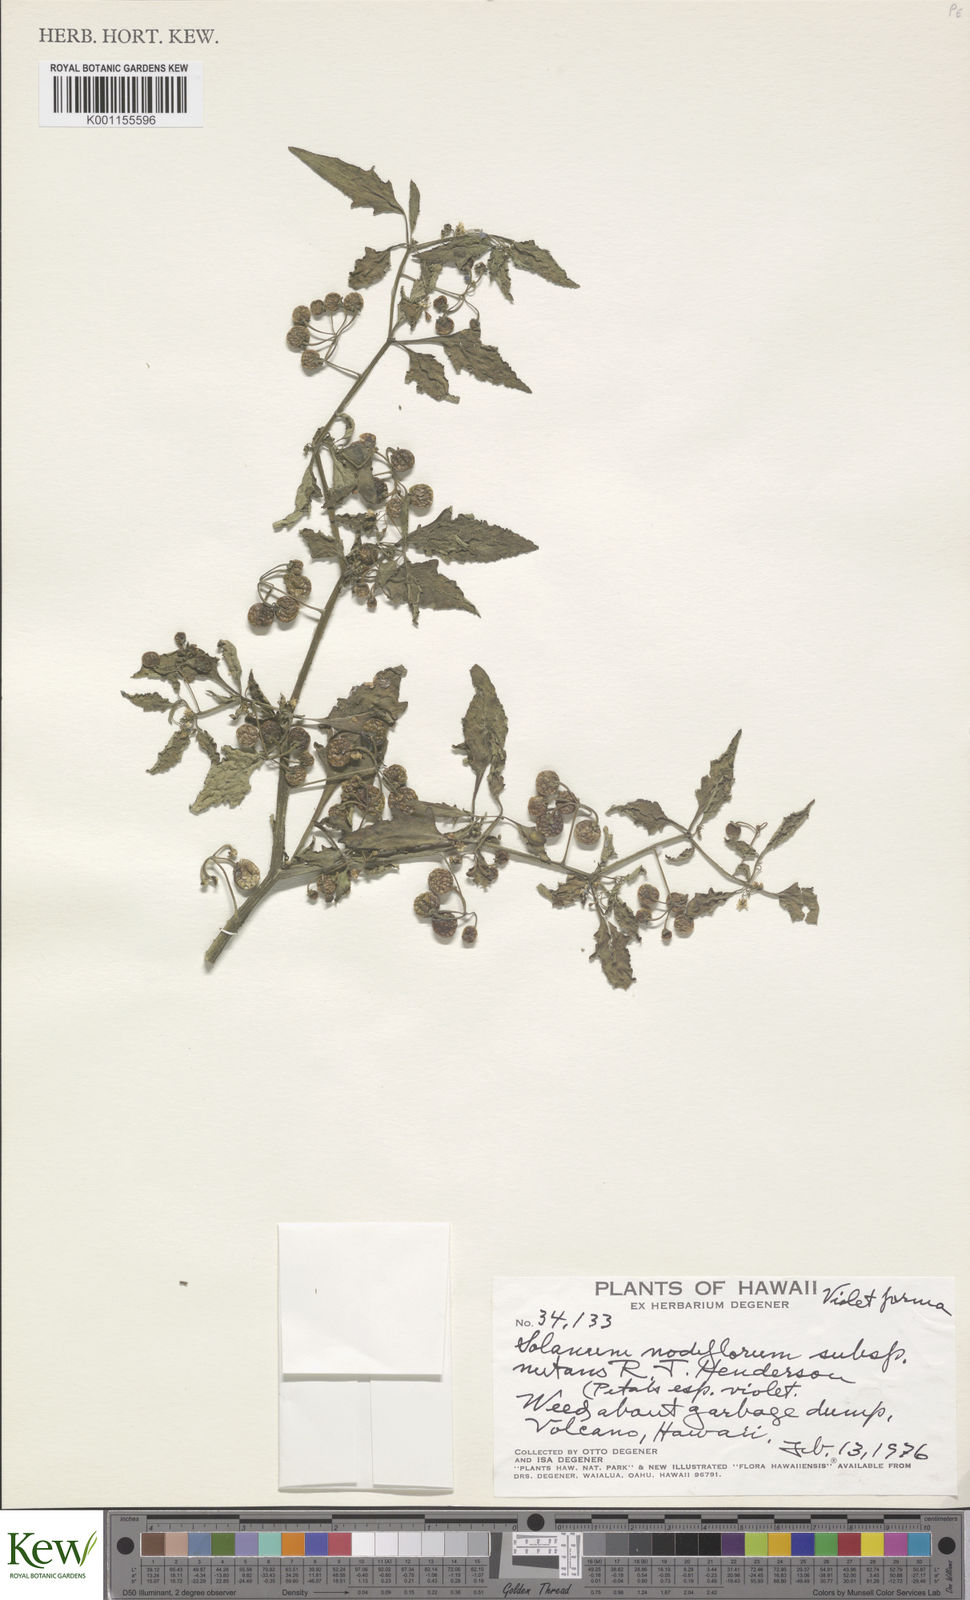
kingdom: Plantae
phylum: Tracheophyta
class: Magnoliopsida
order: Solanales
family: Solanaceae
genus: Solanum
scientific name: Solanum americanum
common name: American black nightshade
